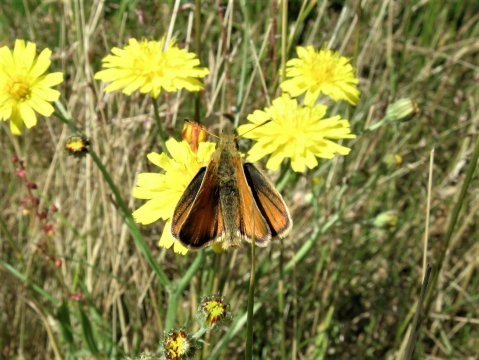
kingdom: Animalia
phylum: Arthropoda
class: Insecta
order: Lepidoptera
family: Hesperiidae
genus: Thymelicus
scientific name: Thymelicus lineola
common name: European Skipper
